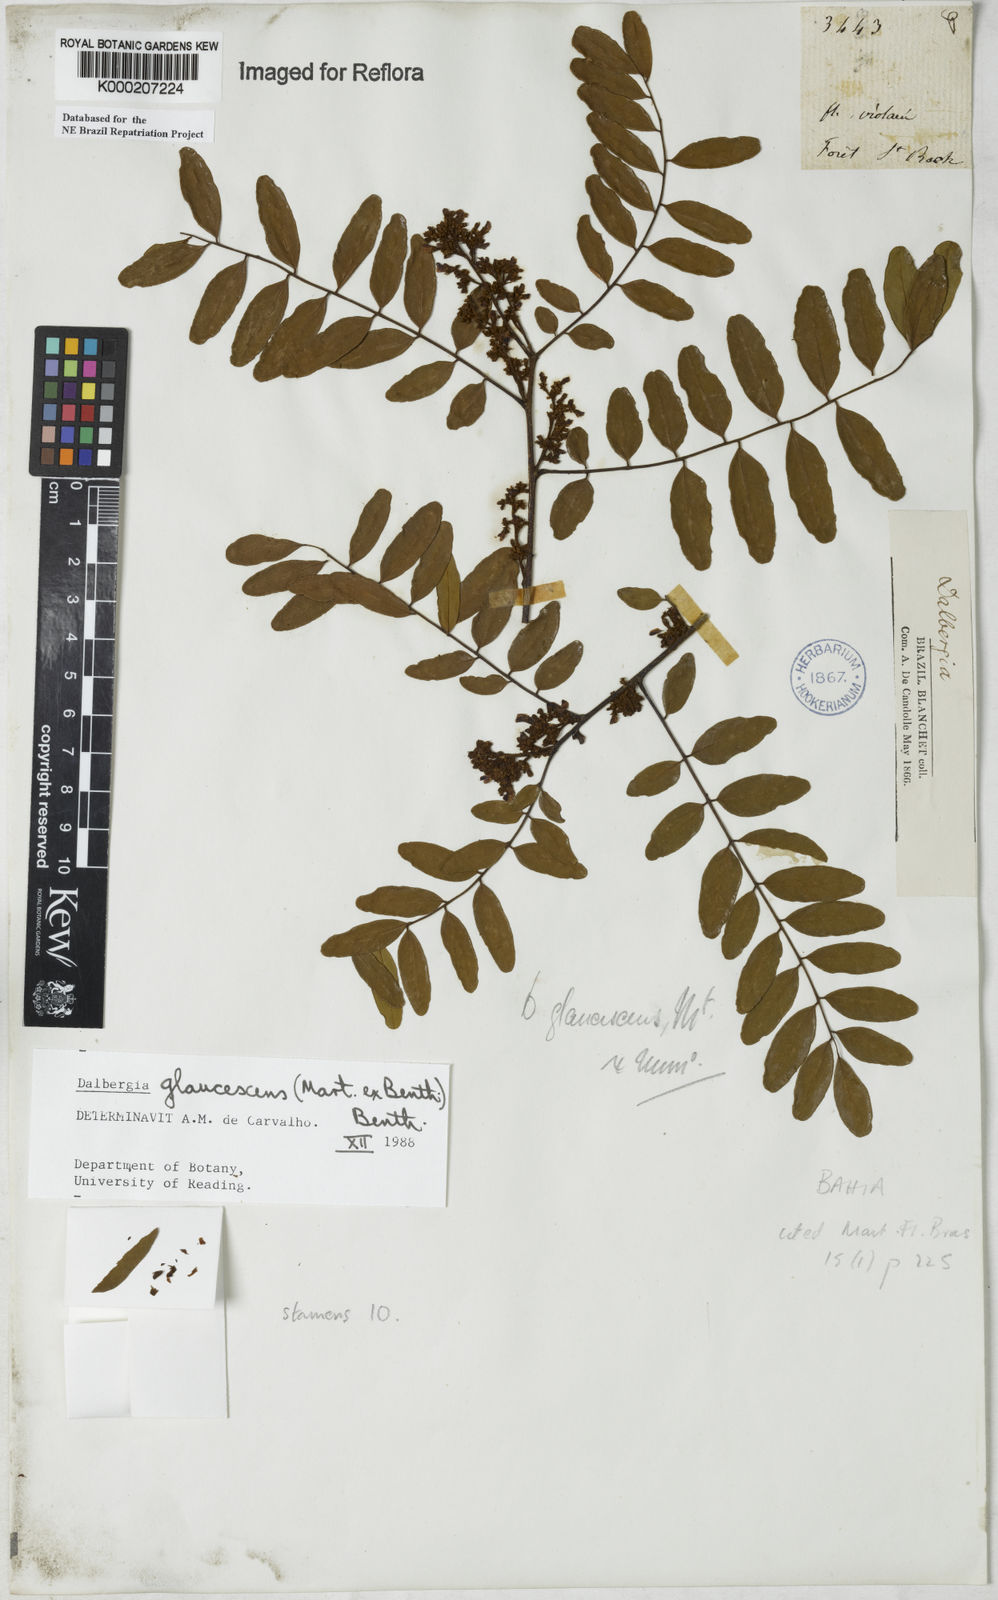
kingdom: Plantae
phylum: Tracheophyta
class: Magnoliopsida
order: Fabales
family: Fabaceae
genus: Dalbergia
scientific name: Dalbergia glaucescens
